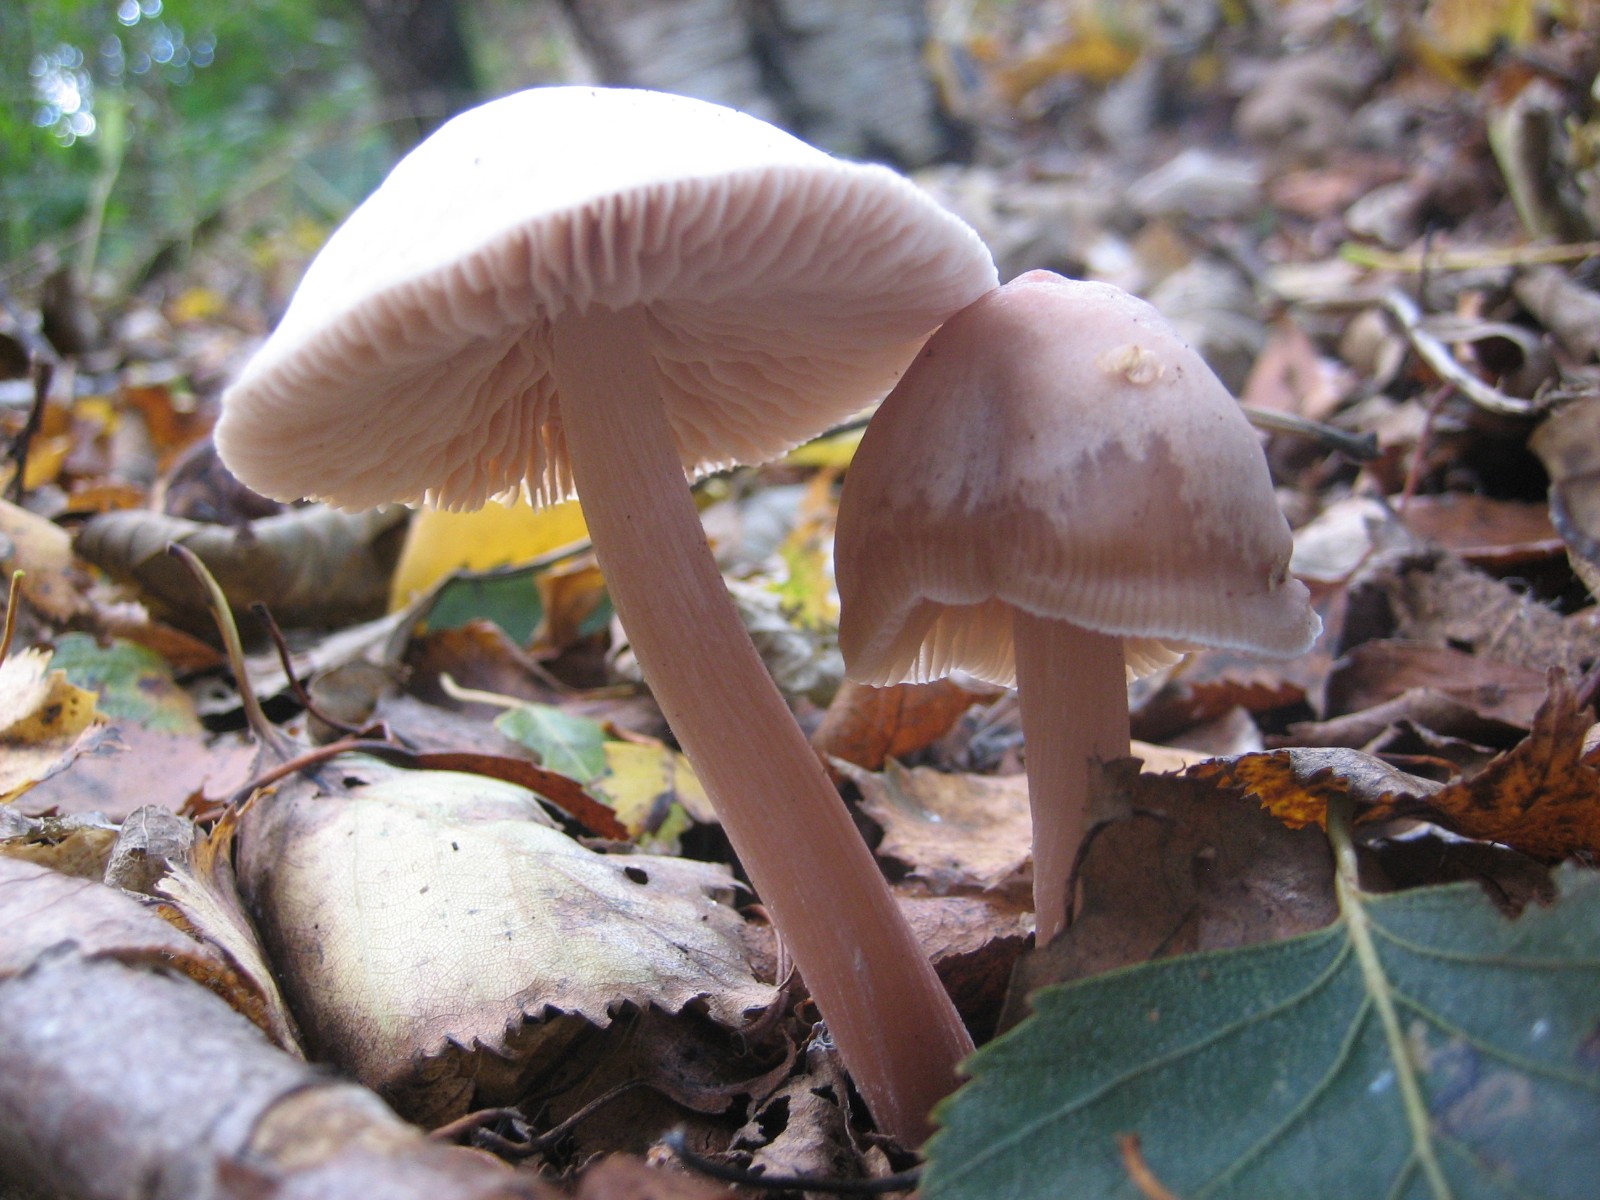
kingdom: Fungi
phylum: Basidiomycota
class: Agaricomycetes
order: Agaricales
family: Mycenaceae
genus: Mycena
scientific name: Mycena rosea
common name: rosa huesvamp
